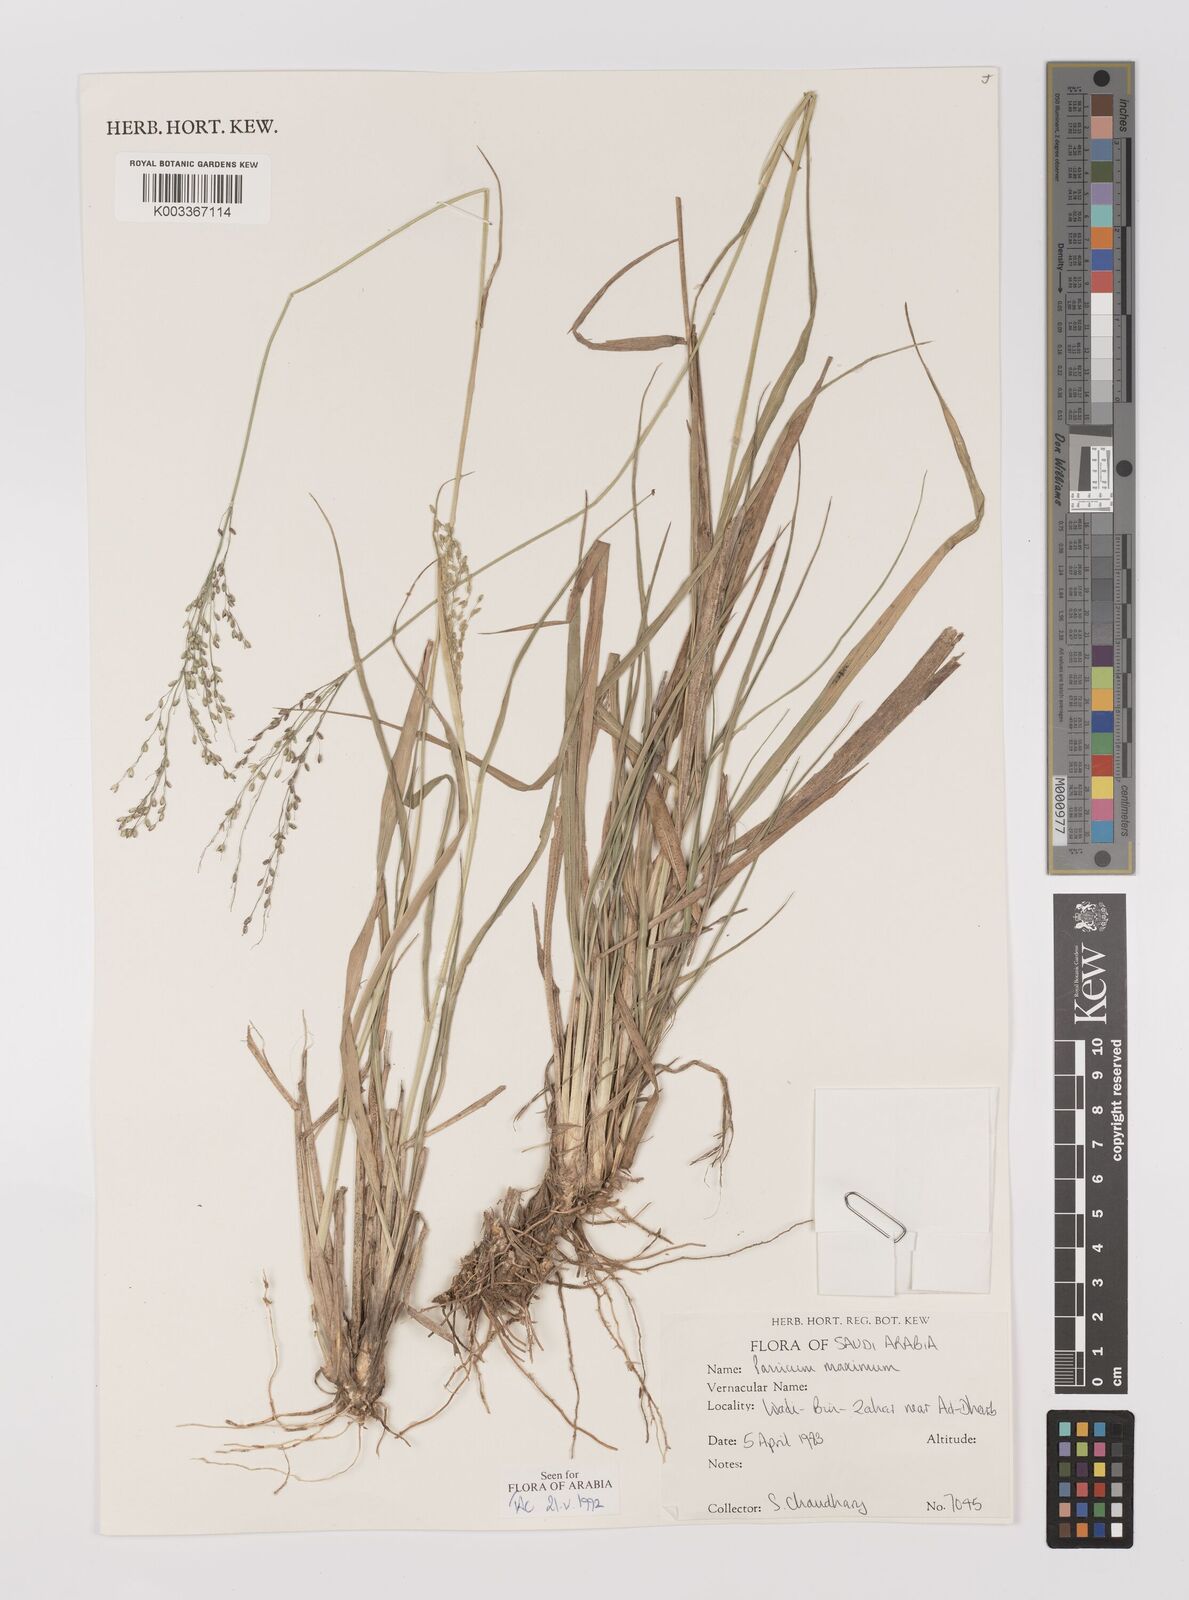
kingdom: Plantae
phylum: Tracheophyta
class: Liliopsida
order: Poales
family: Poaceae
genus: Megathyrsus
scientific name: Megathyrsus maximus
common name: Guineagrass
